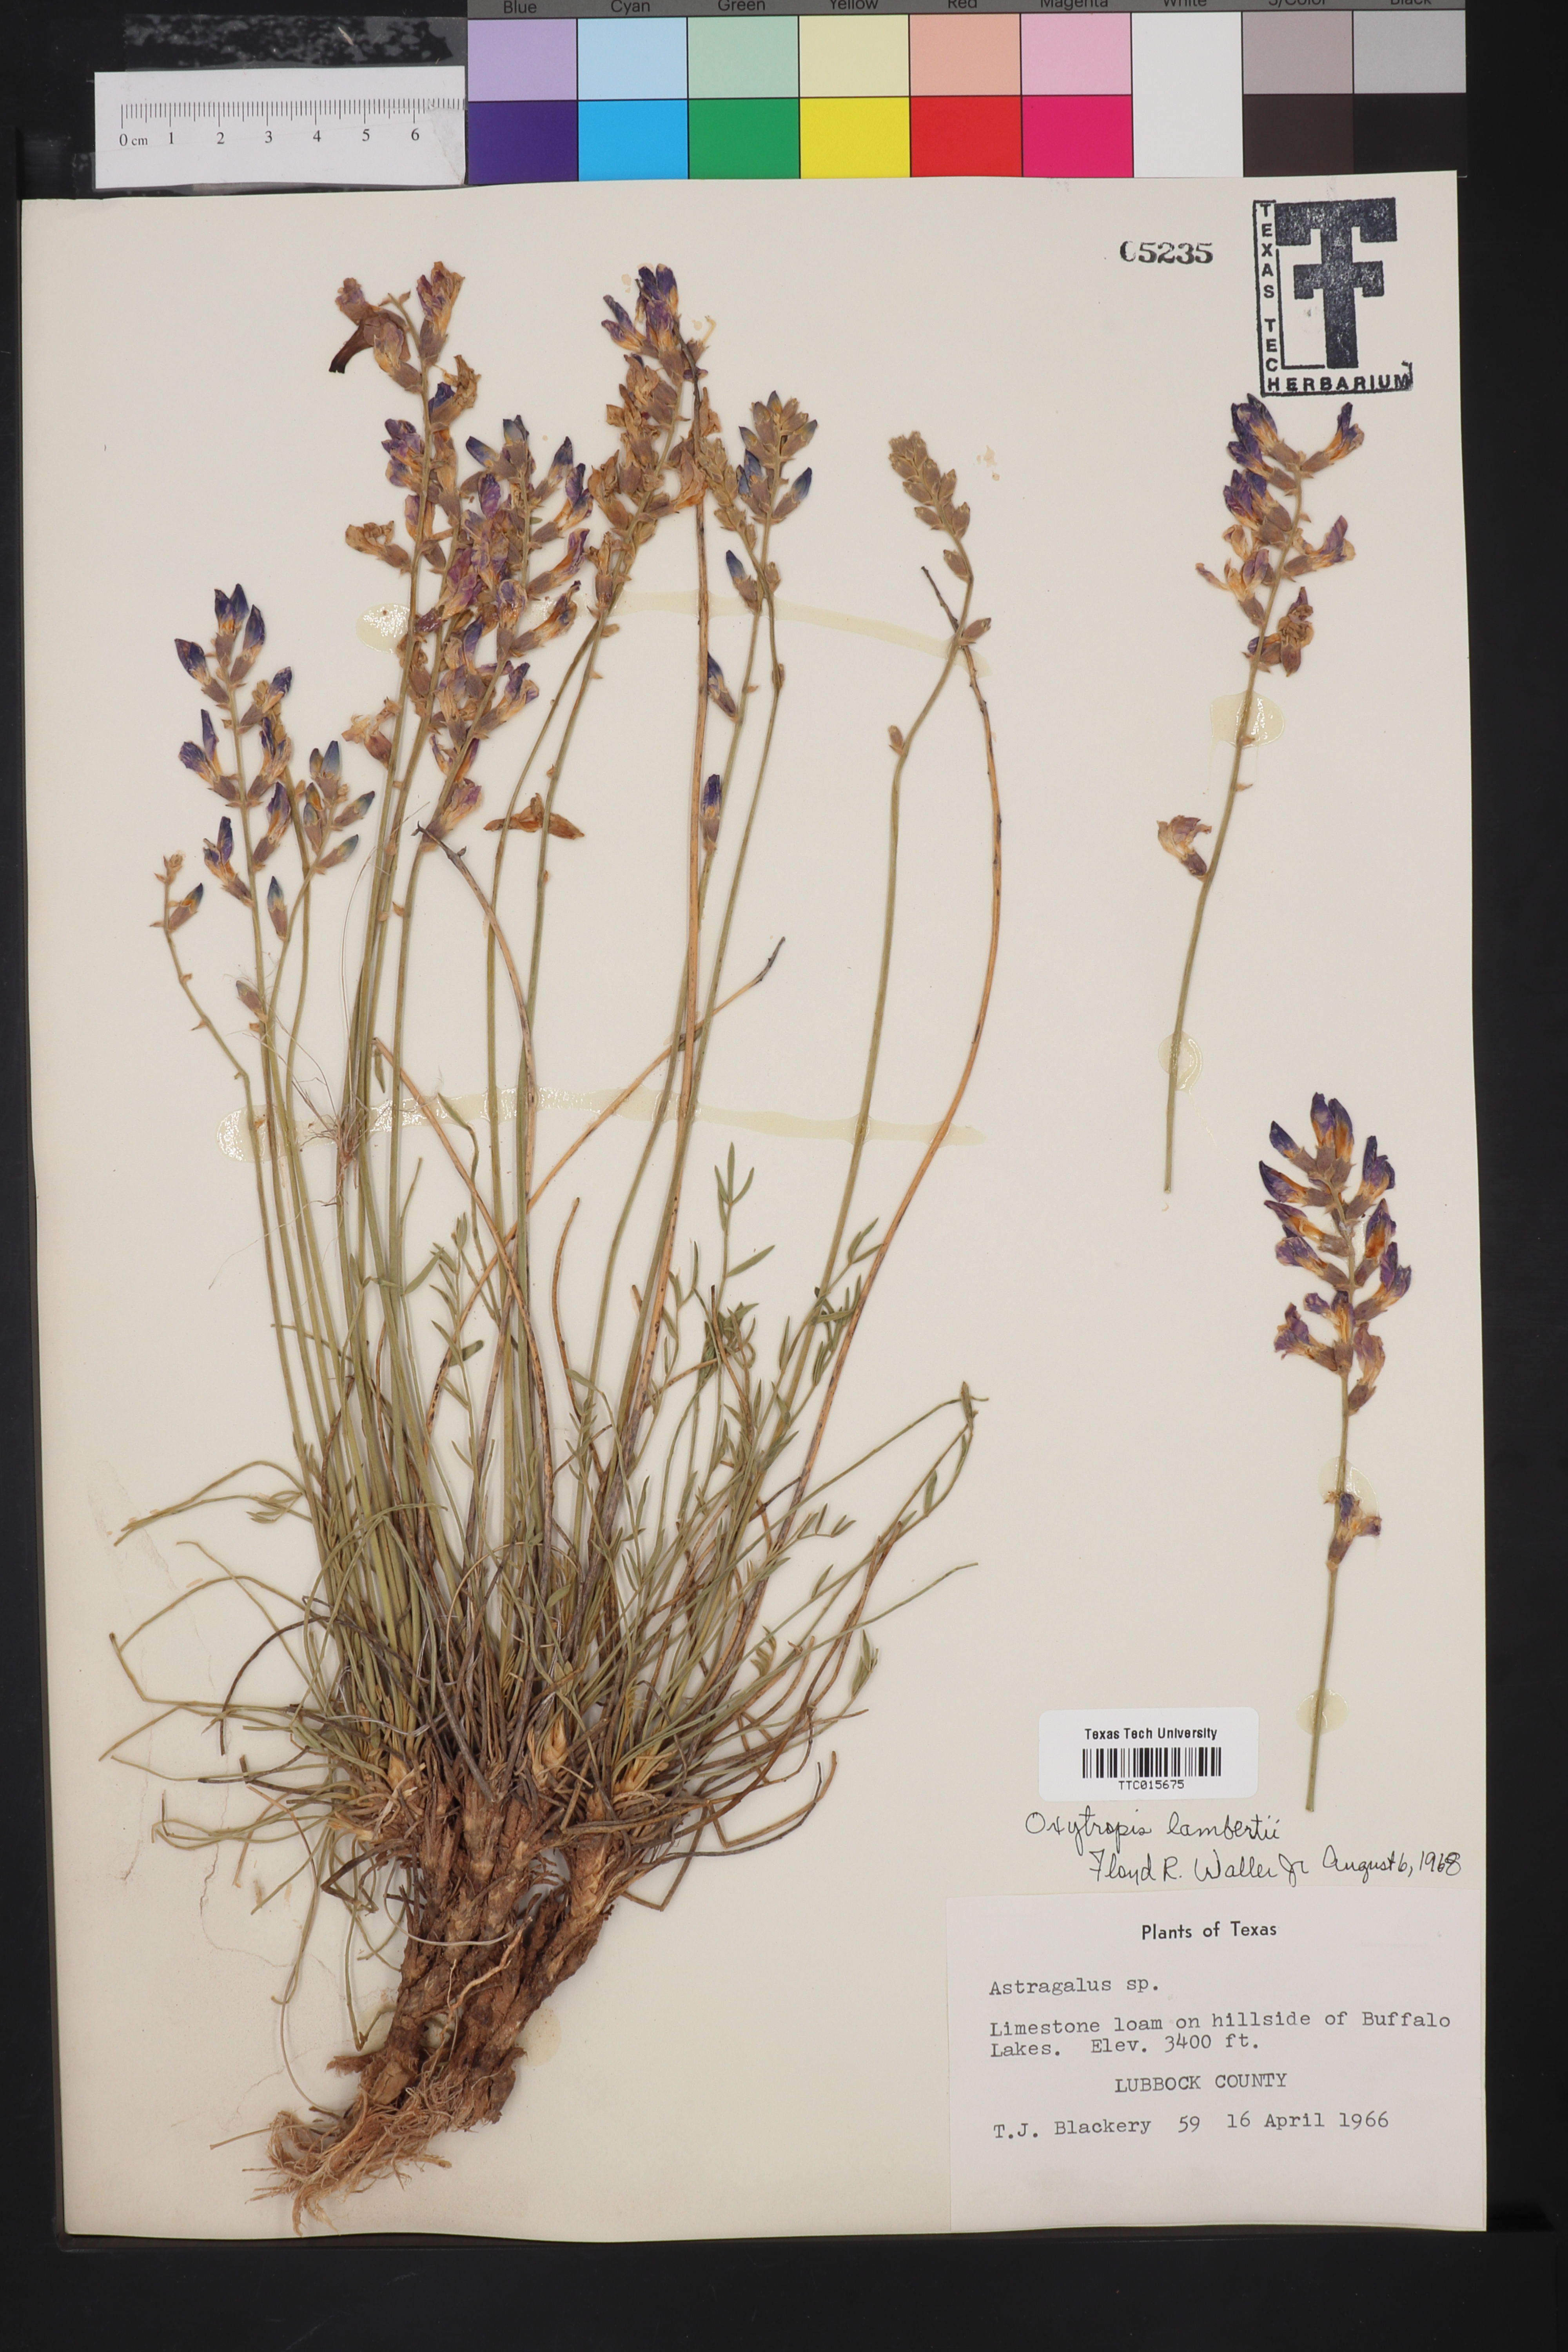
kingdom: Plantae
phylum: Tracheophyta
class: Magnoliopsida
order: Fabales
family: Fabaceae
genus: Oxytropis
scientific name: Oxytropis lambertii
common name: Purple locoweed
